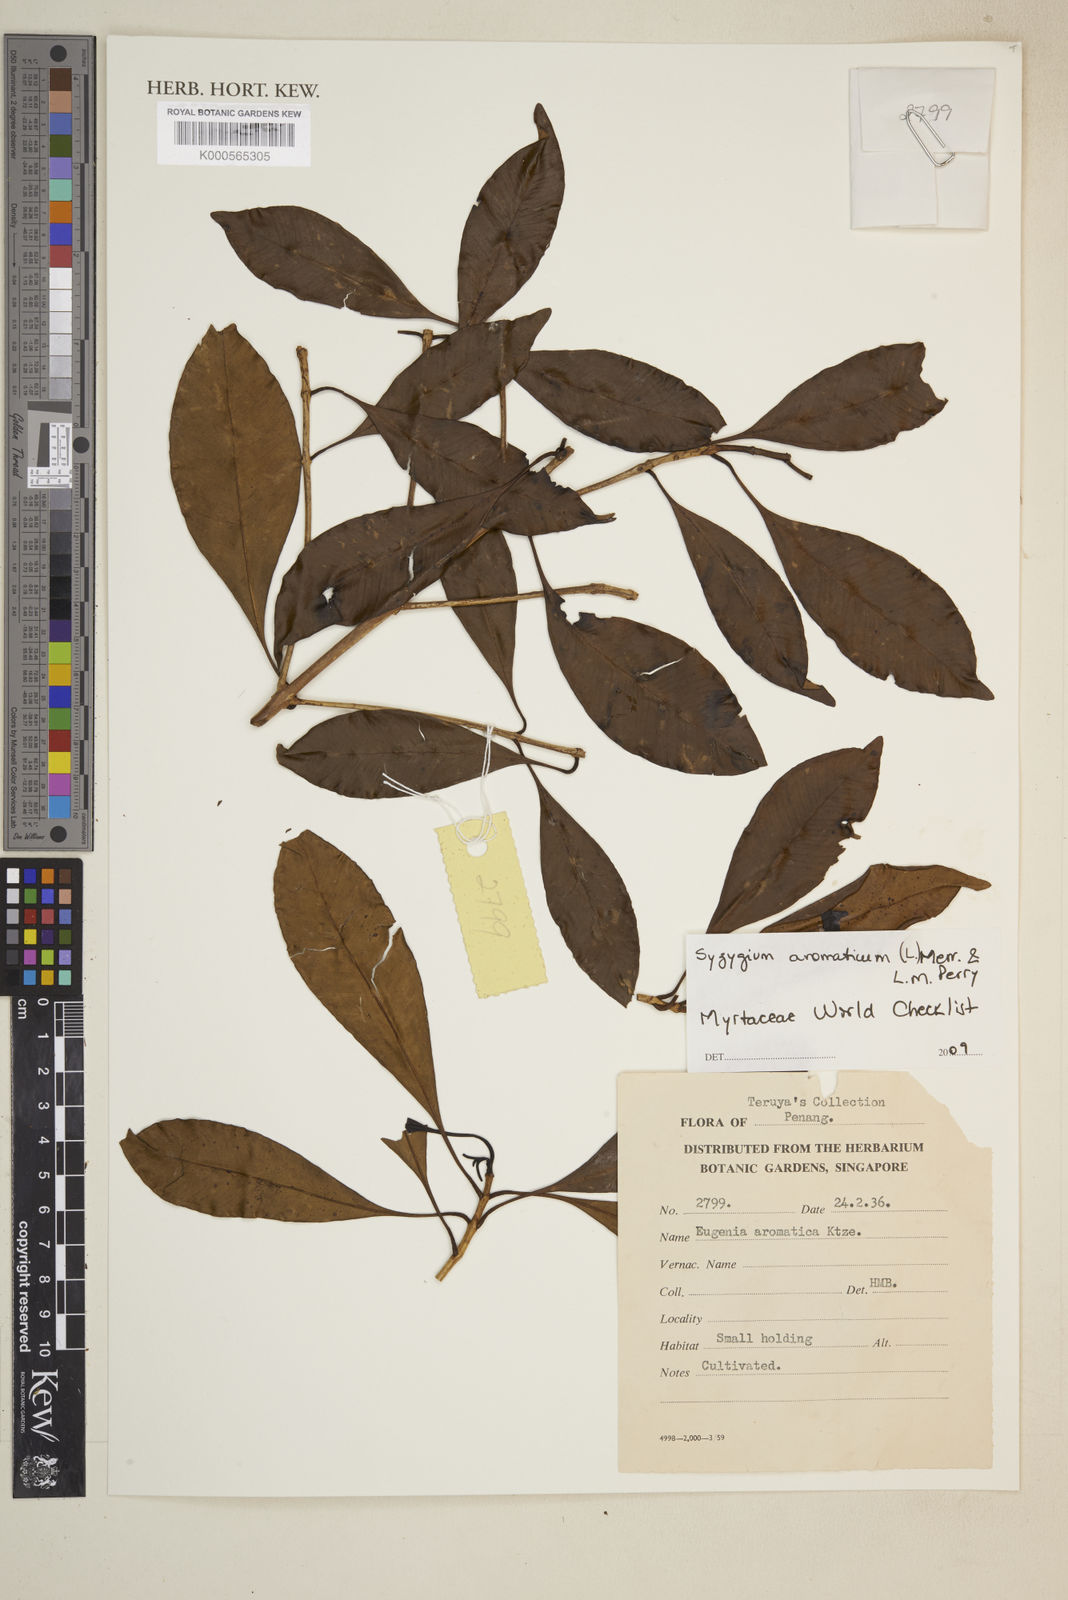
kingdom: Plantae
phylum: Tracheophyta
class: Magnoliopsida
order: Myrtales
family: Myrtaceae
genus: Syzygium
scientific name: Syzygium aromaticum
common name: Clove
